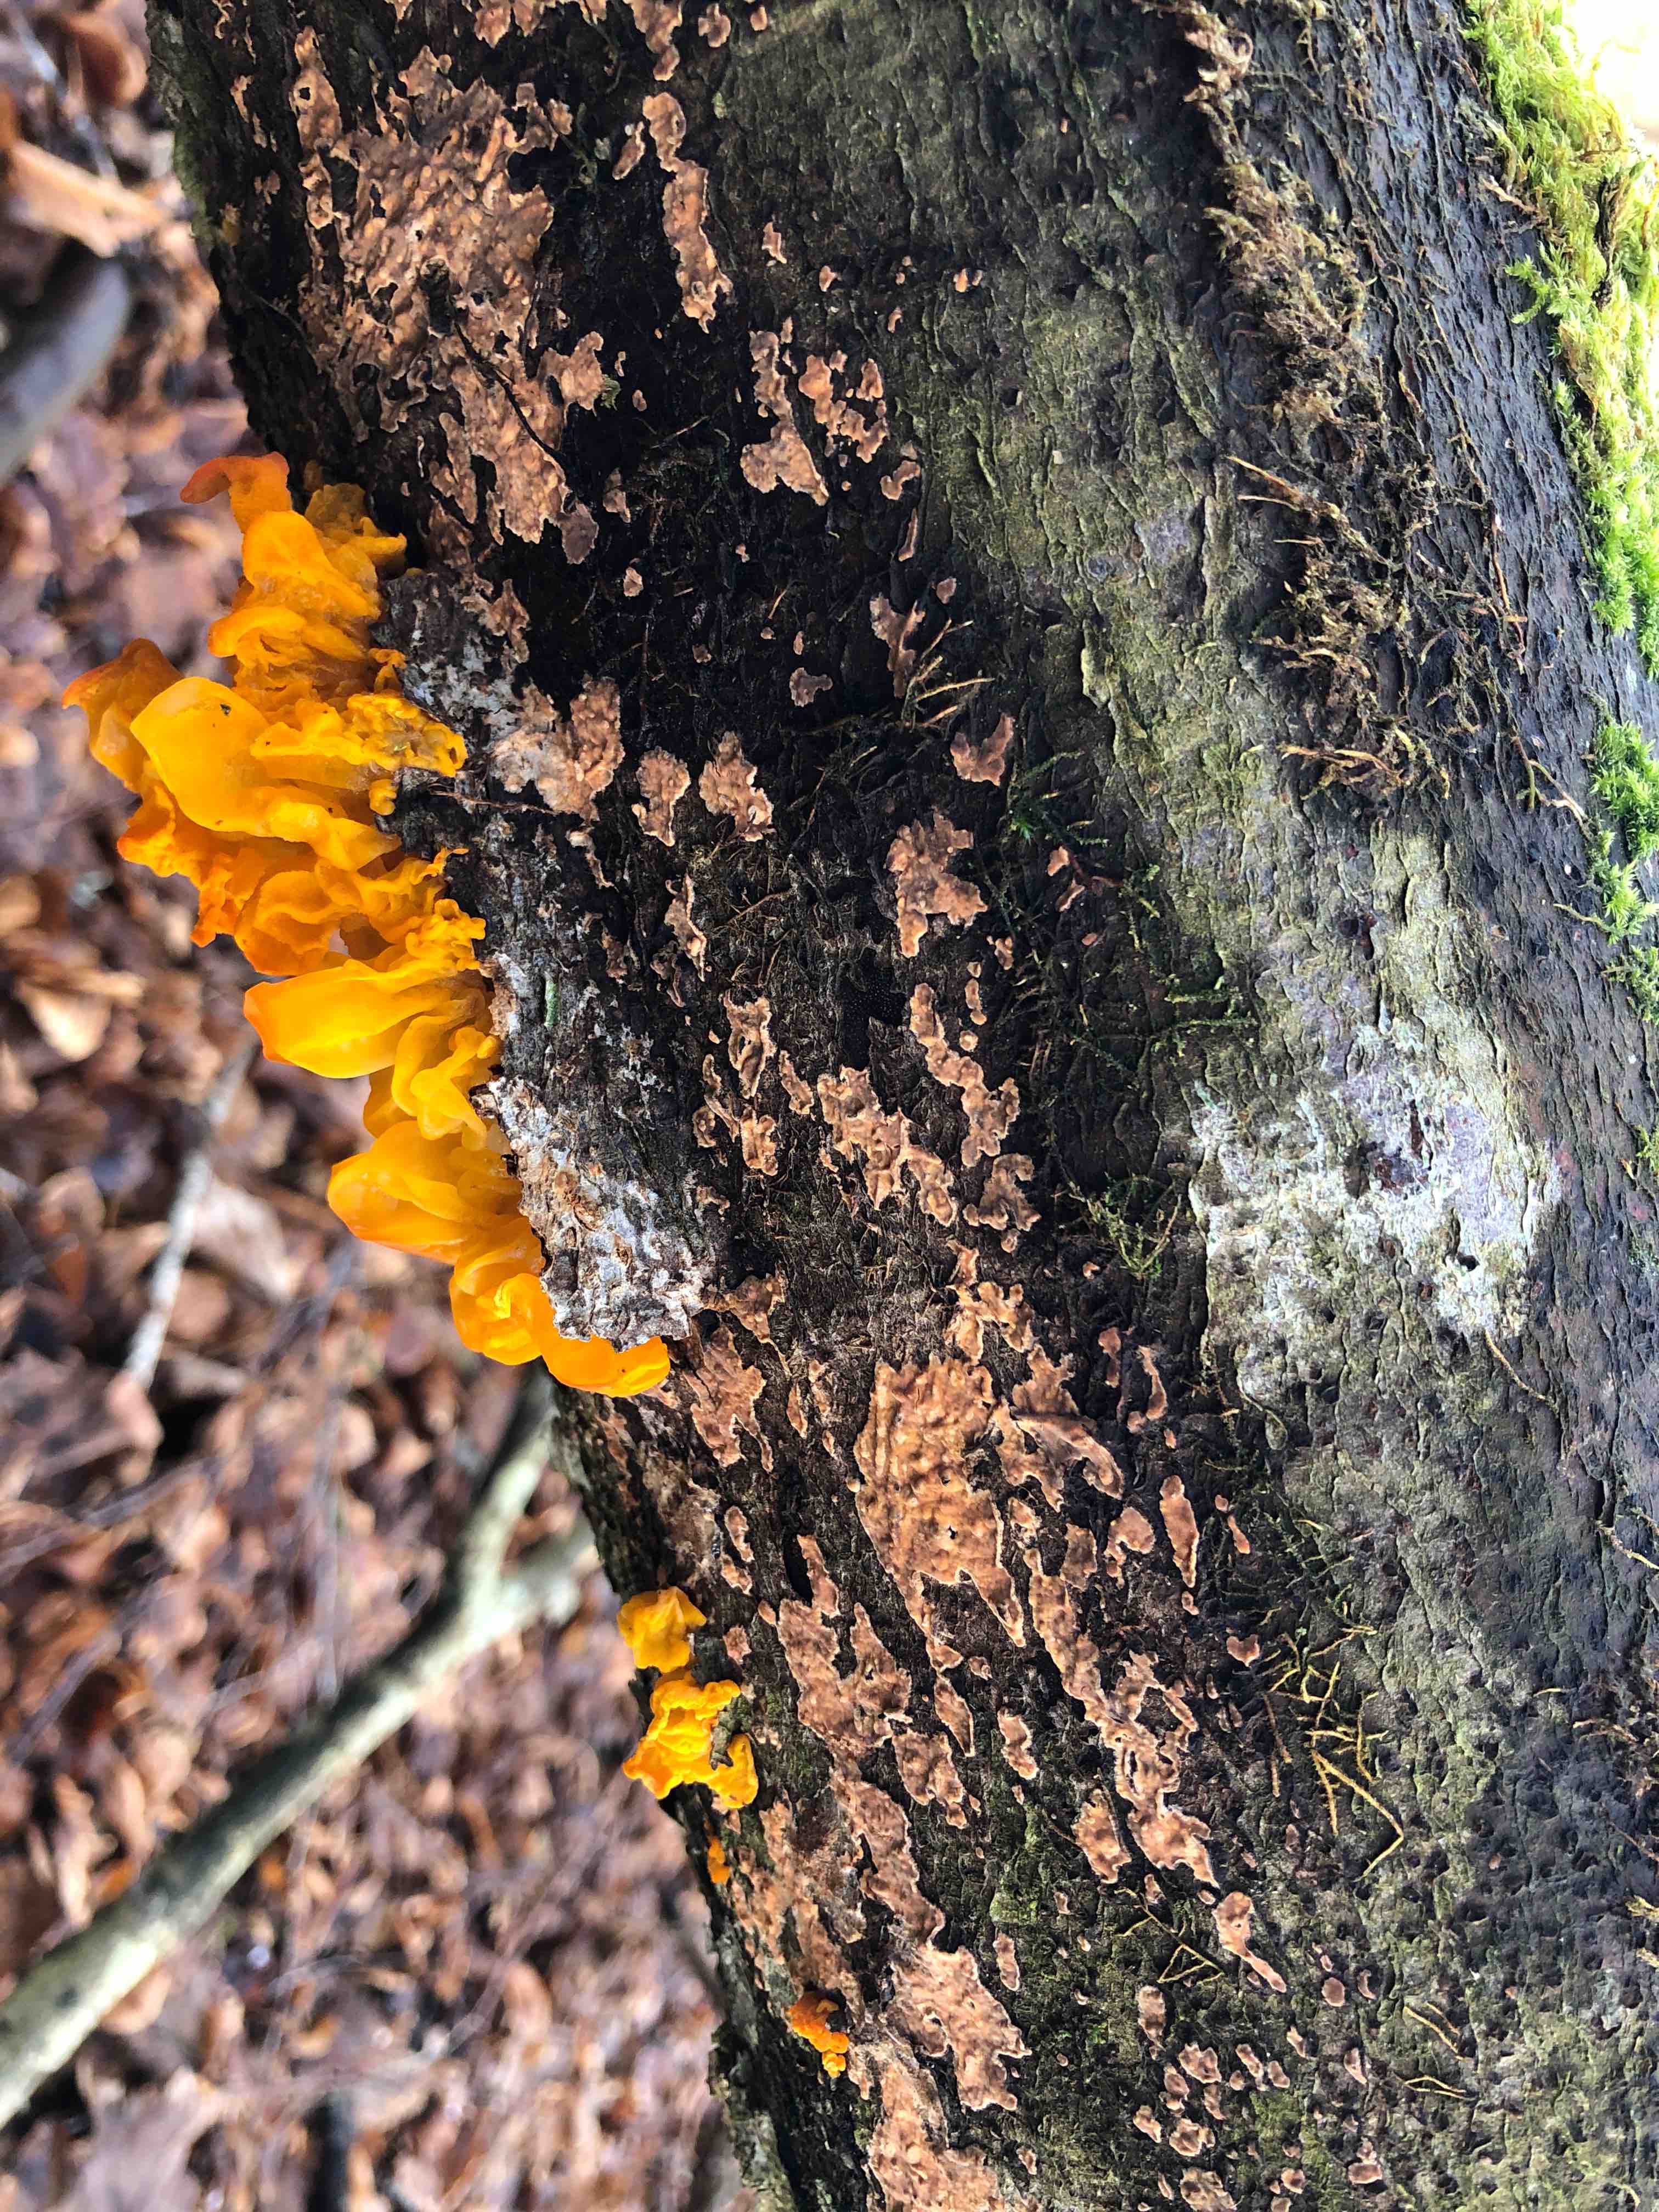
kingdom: Fungi
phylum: Basidiomycota
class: Agaricomycetes
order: Russulales
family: Peniophoraceae
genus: Peniophora
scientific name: Peniophora incarnata
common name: laksefarvet voksskind
